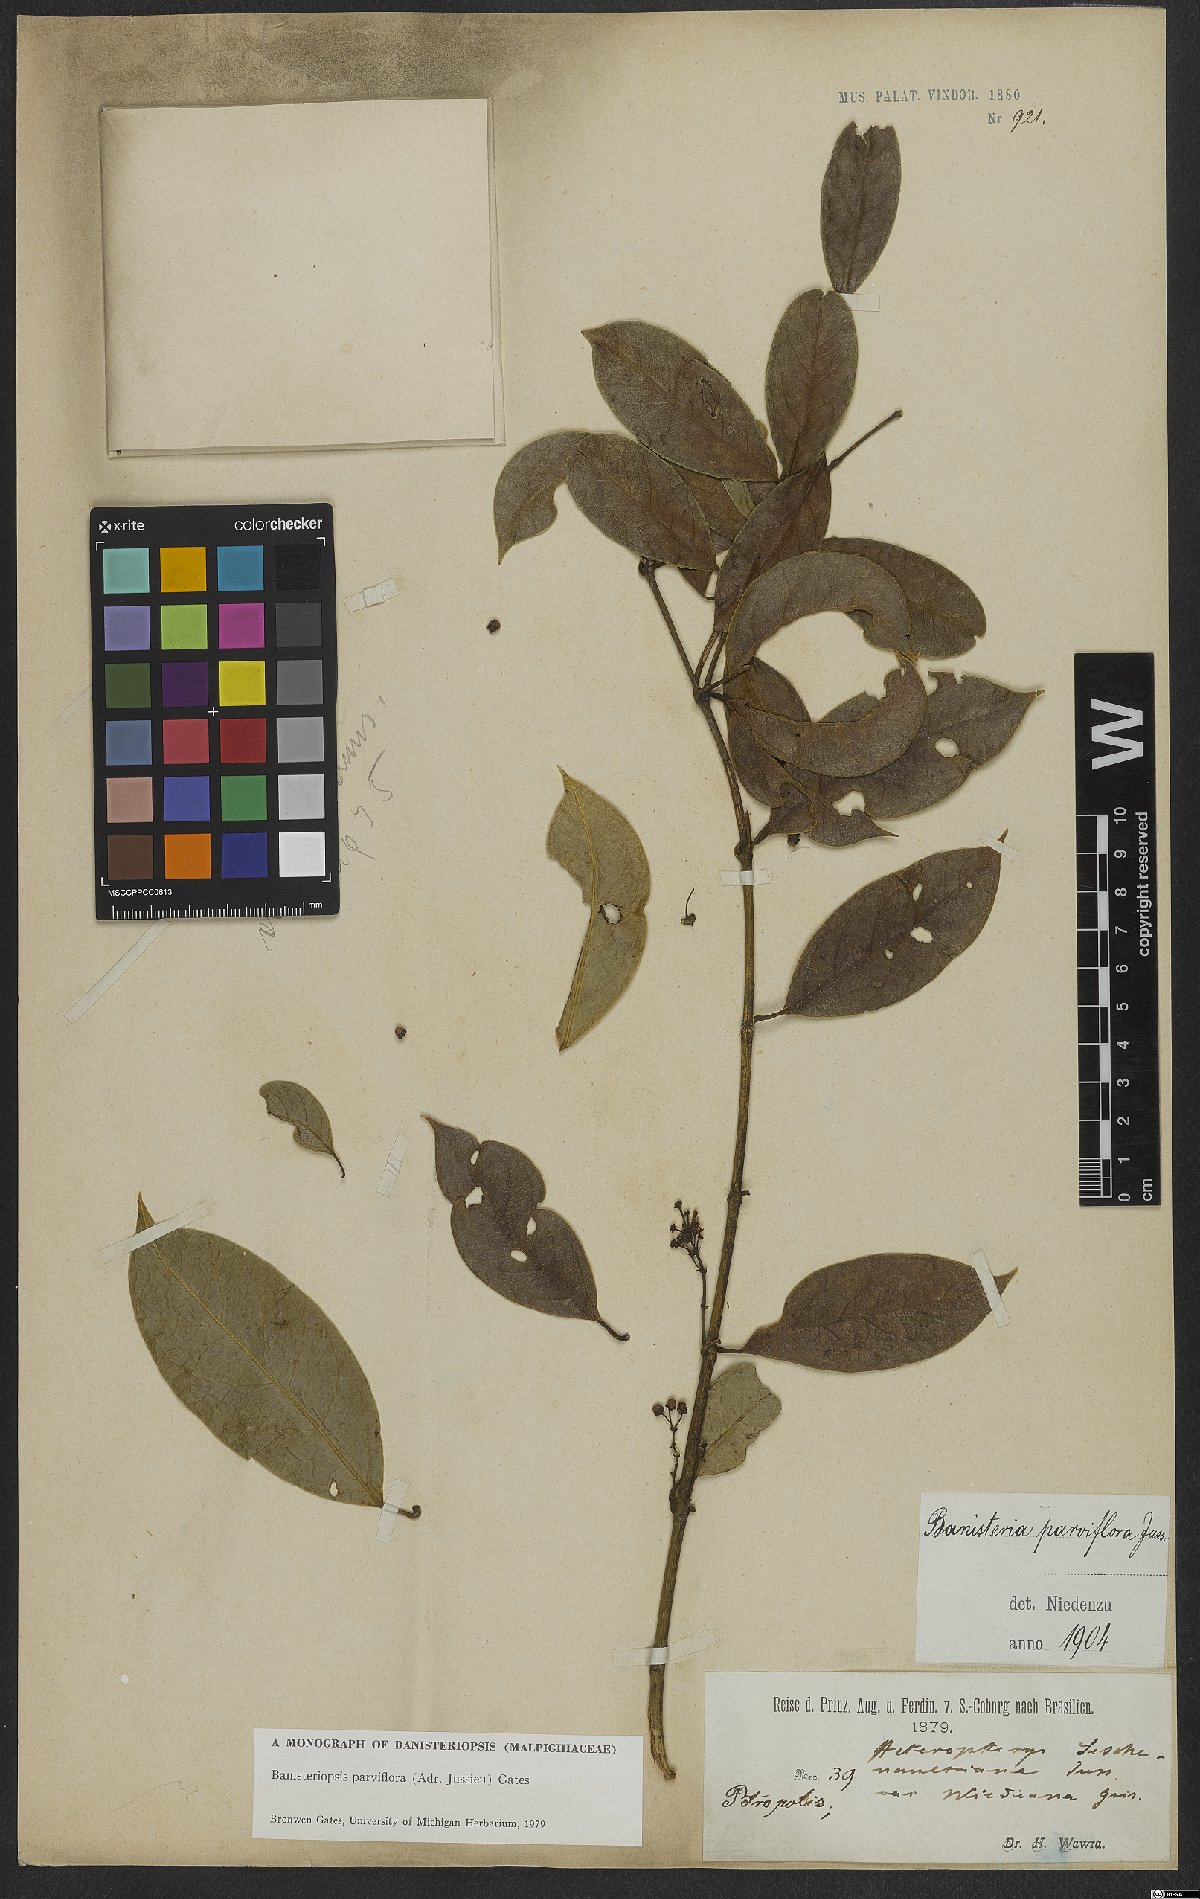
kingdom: Plantae
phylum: Tracheophyta
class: Magnoliopsida
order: Malpighiales
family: Malpighiaceae
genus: Banisteriopsis
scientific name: Banisteriopsis parviflora
